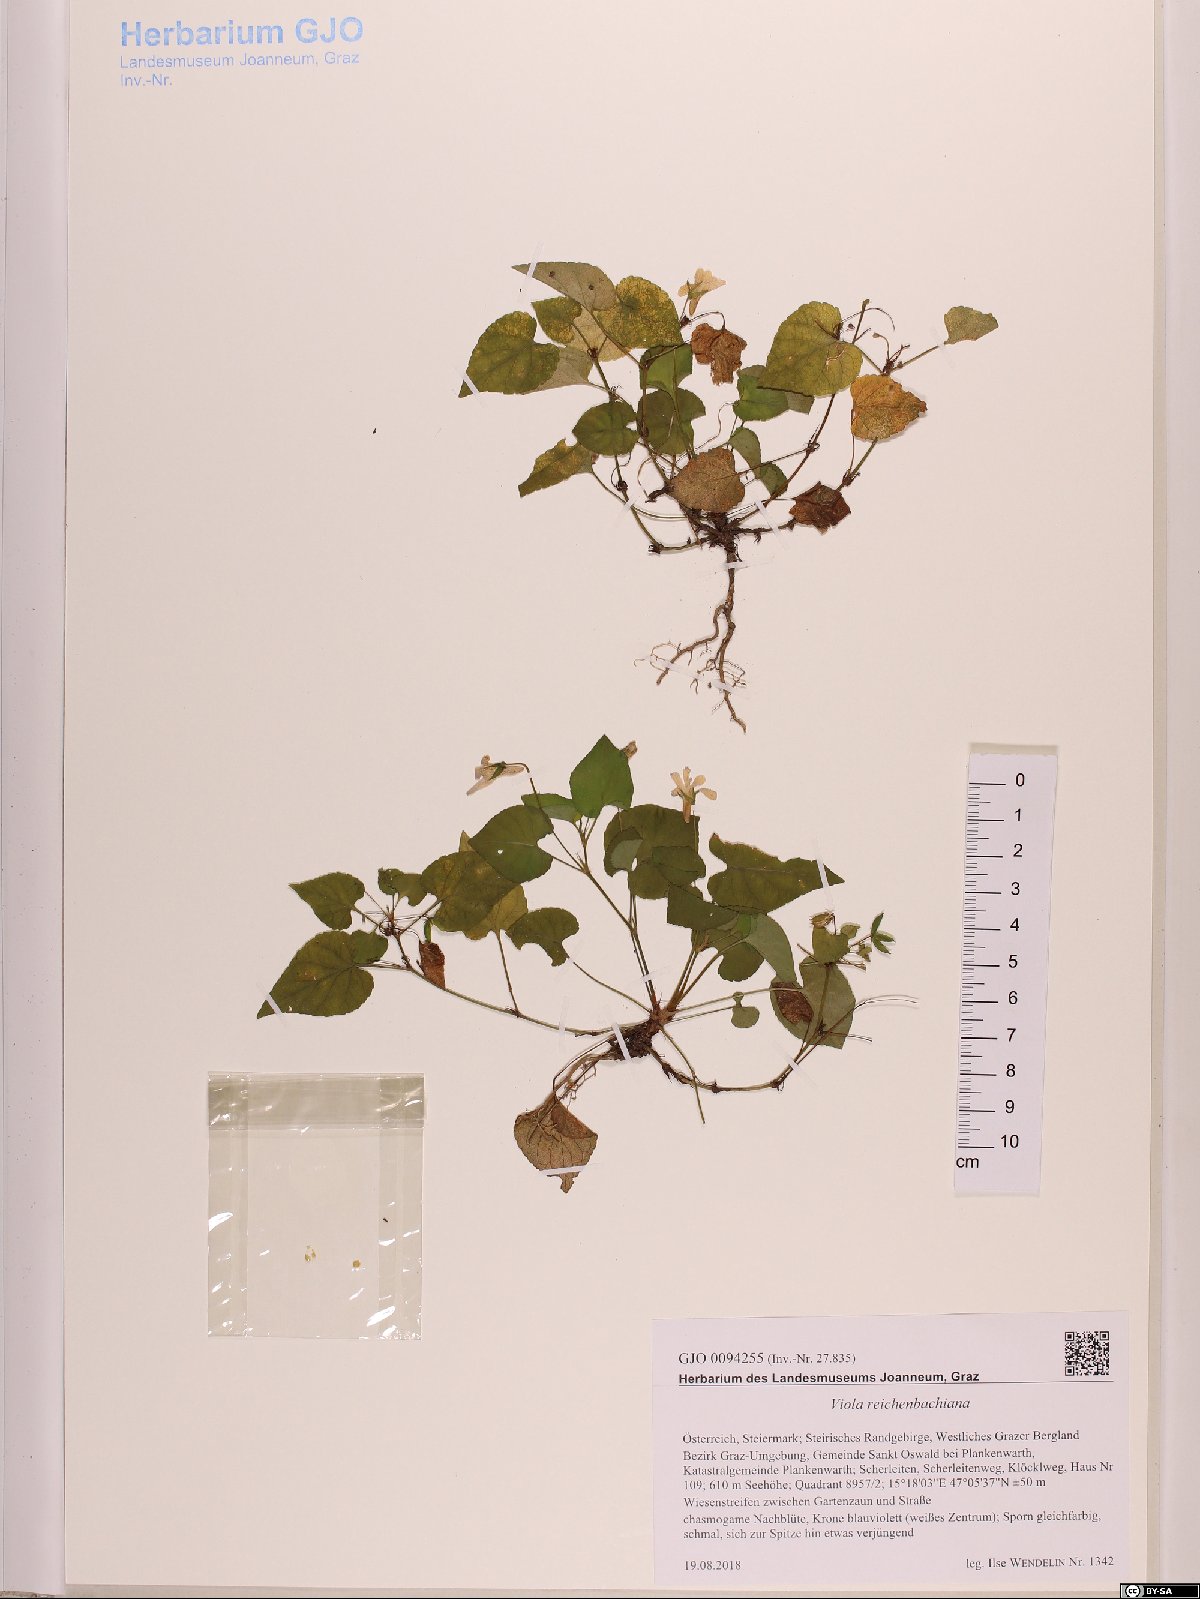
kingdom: Plantae
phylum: Tracheophyta
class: Magnoliopsida
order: Malpighiales
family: Violaceae
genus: Viola
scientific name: Viola reichenbachiana
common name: Early dog-violet
